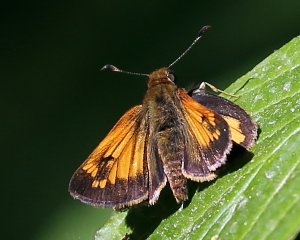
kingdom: Animalia
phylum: Arthropoda
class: Insecta
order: Lepidoptera
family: Hesperiidae
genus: Lon
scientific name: Lon hobomok
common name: Hobomok Skipper
